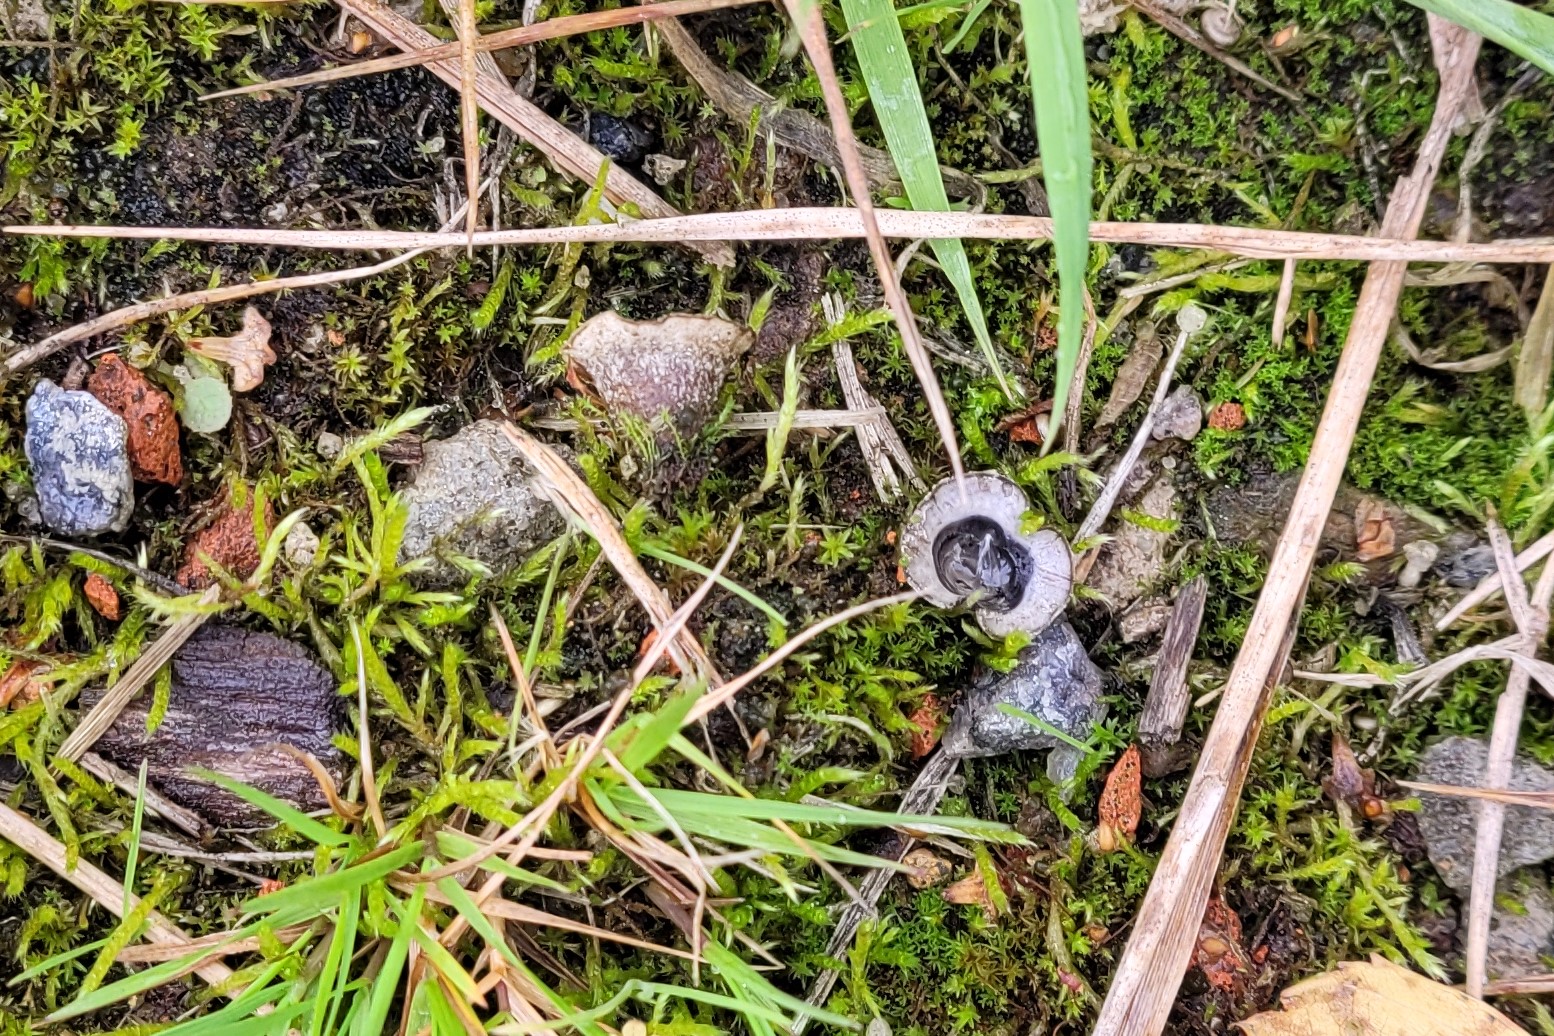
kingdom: Fungi
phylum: Basidiomycota
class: Agaricomycetes
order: Agaricales
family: Agaricaceae
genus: Cyathus
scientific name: Cyathus olla
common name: klokke-redesvamp
